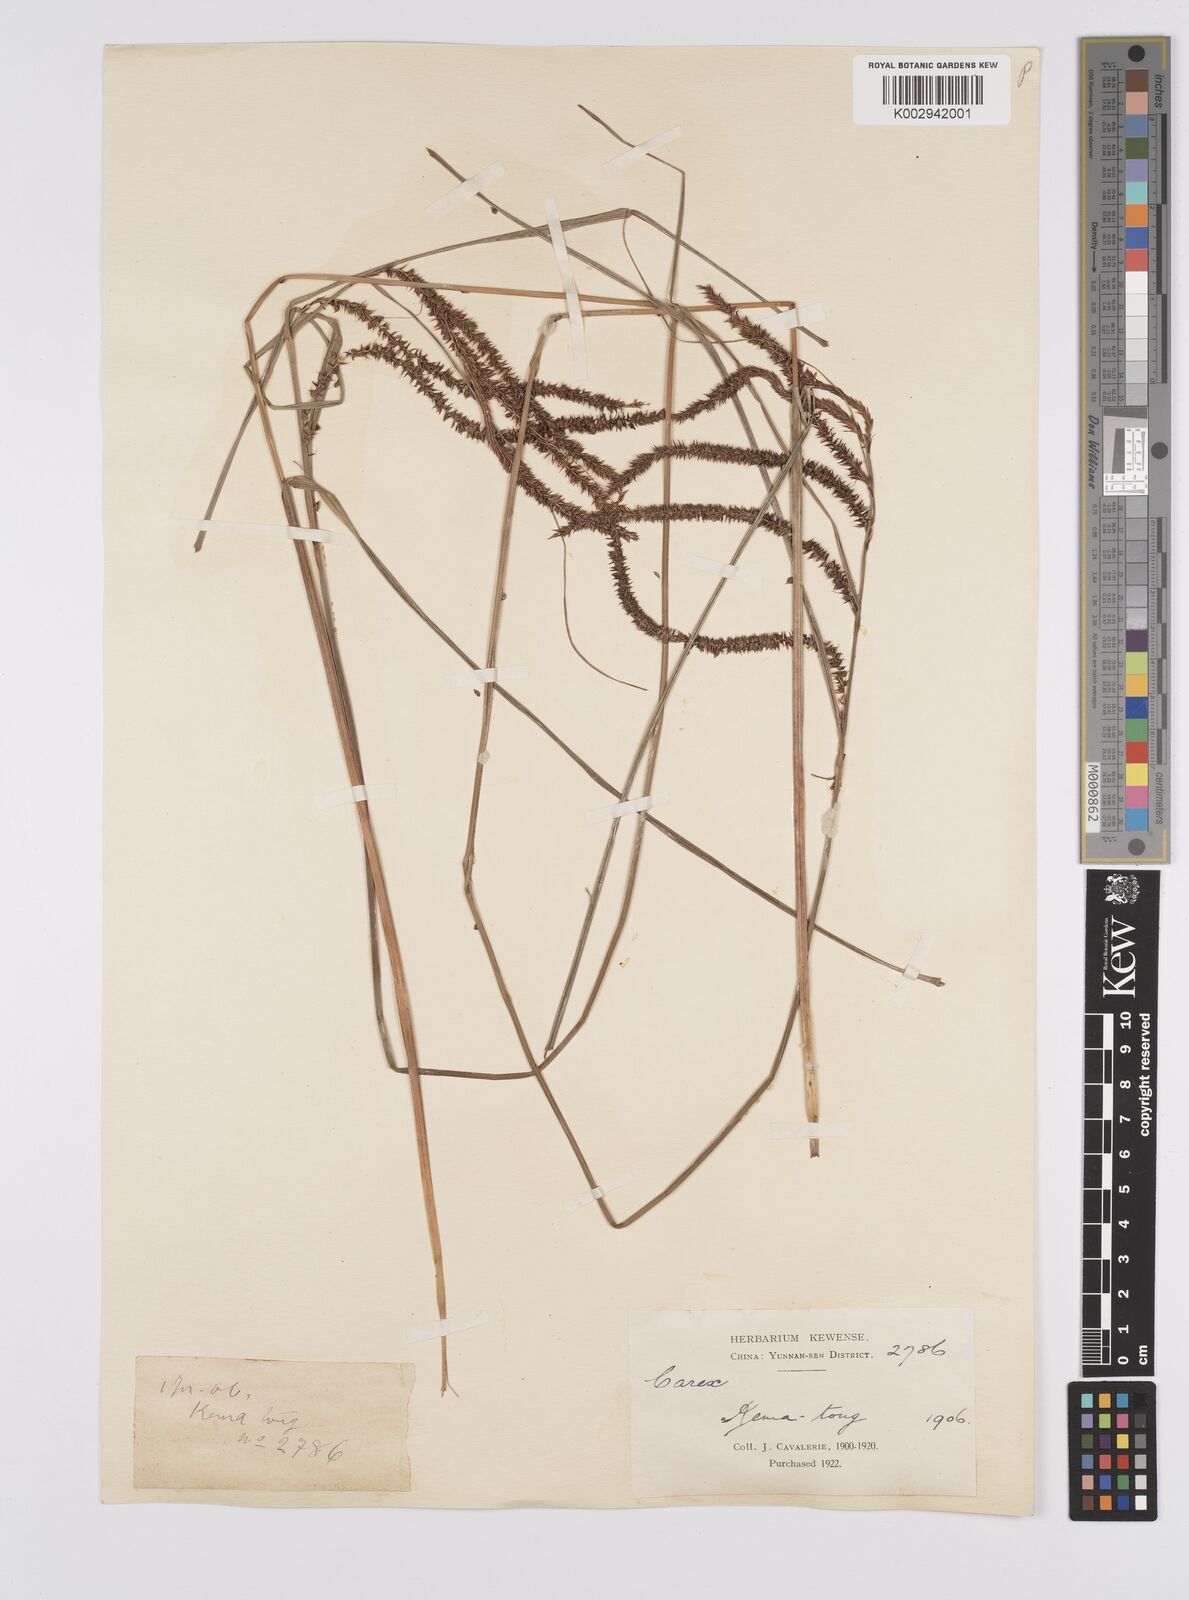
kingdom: Plantae
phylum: Tracheophyta
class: Liliopsida
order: Poales
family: Cyperaceae
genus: Carex
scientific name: Carex dispalata
